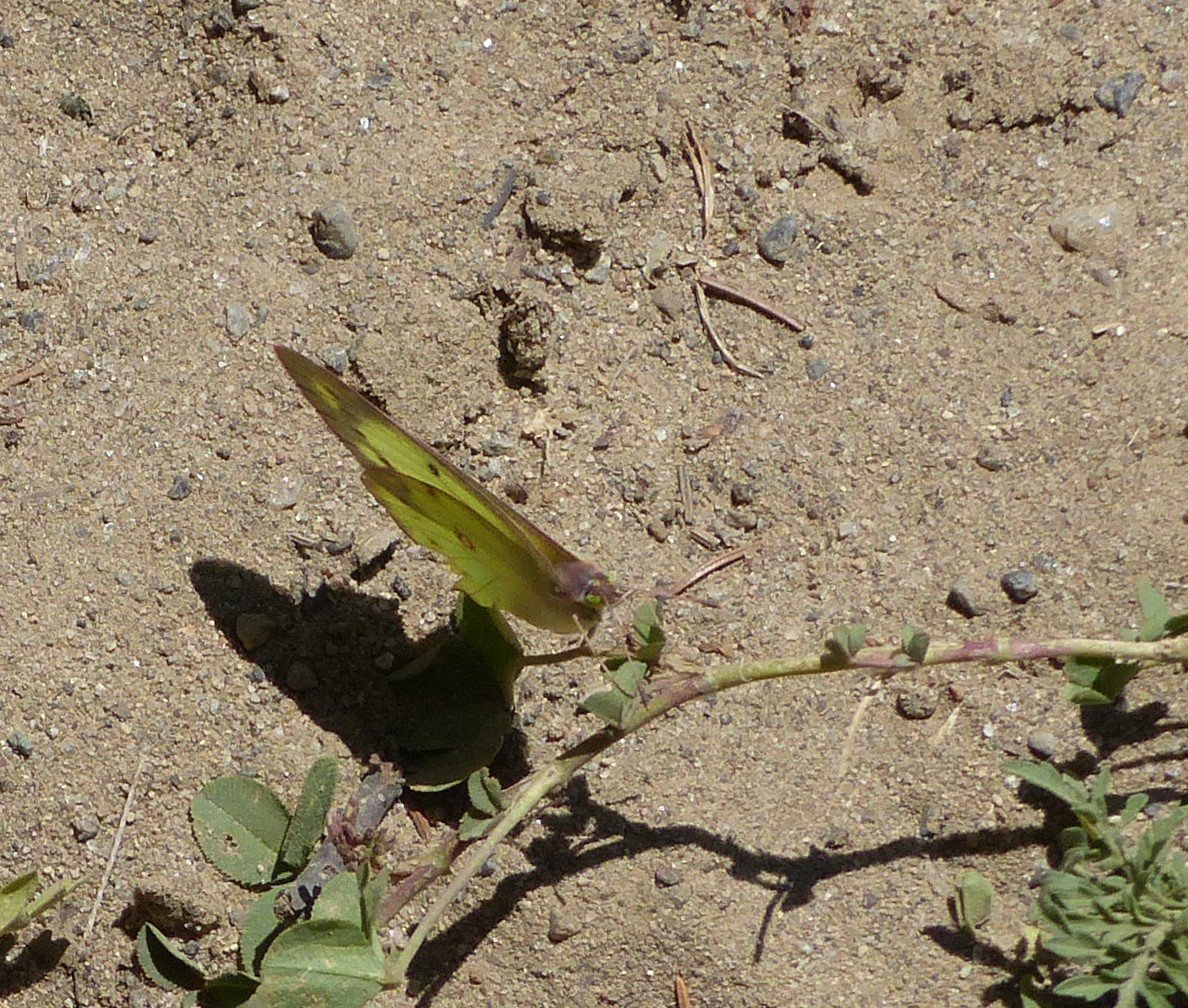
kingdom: Animalia
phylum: Arthropoda
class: Insecta
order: Lepidoptera
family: Pieridae
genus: Colias
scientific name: Colias philodice
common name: Clouded Sulphur
